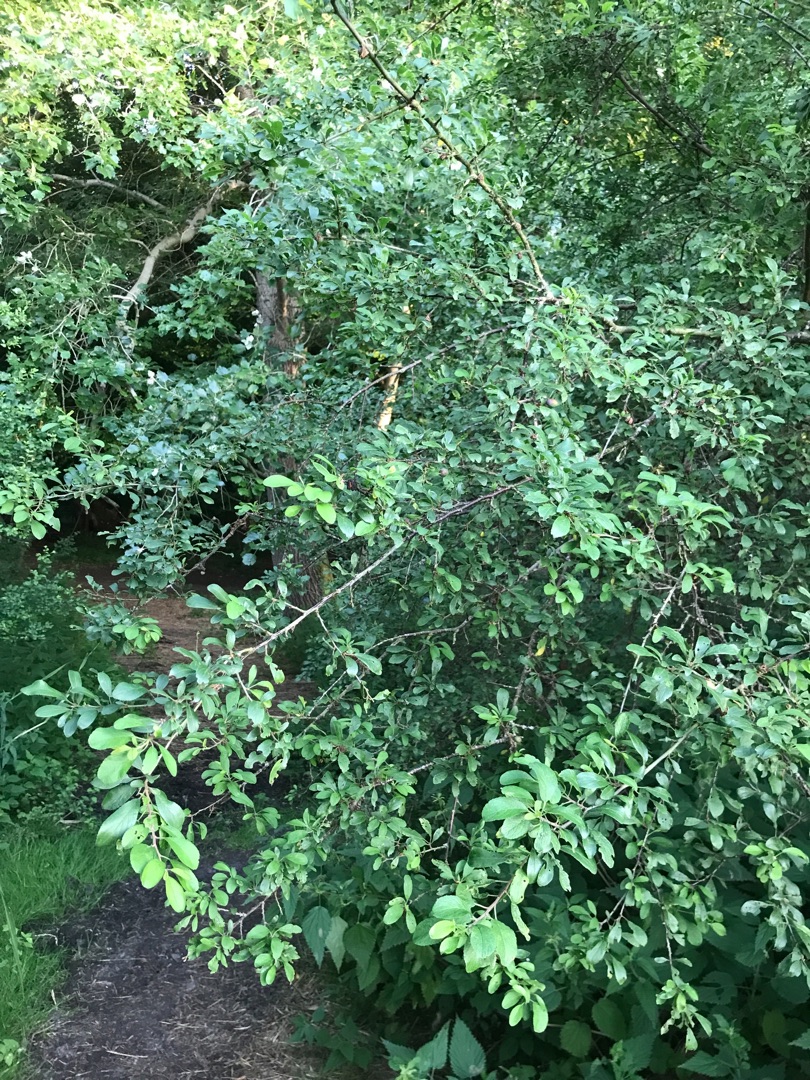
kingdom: Plantae
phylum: Tracheophyta
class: Magnoliopsida
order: Rosales
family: Rosaceae
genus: Prunus
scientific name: Prunus spinosa
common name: Slåen
